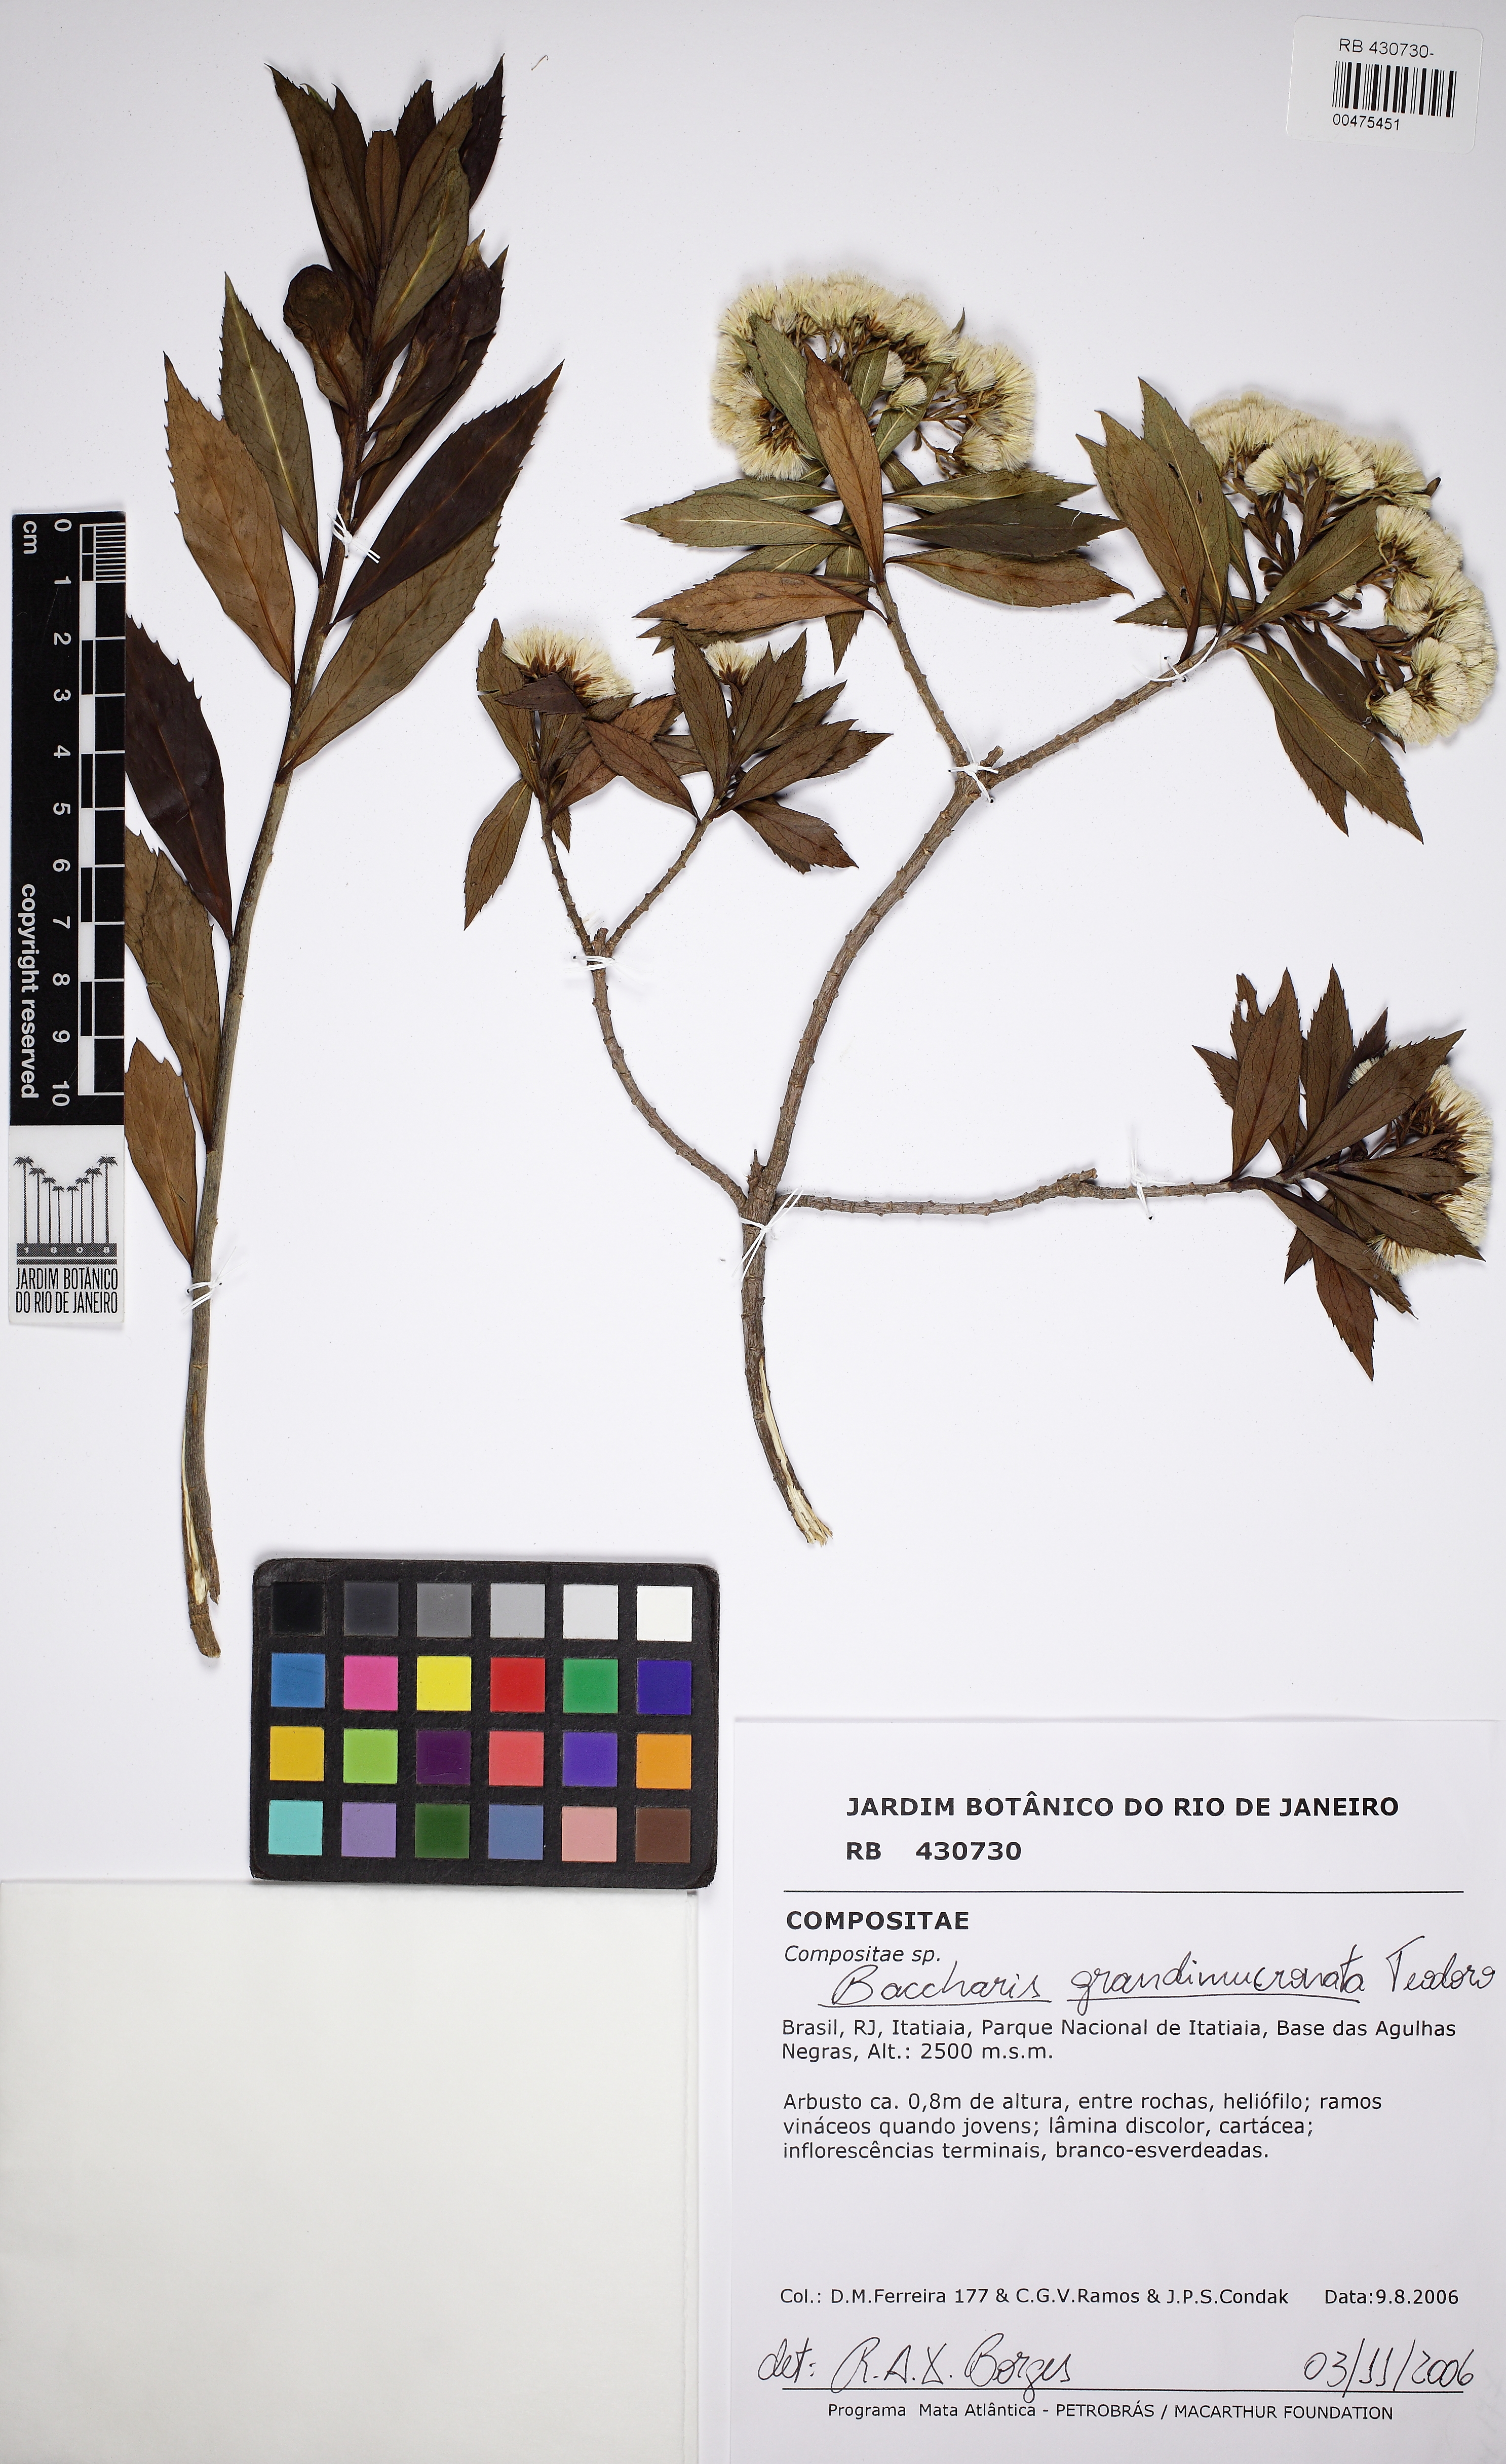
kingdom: Plantae
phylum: Tracheophyta
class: Magnoliopsida
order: Asterales
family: Asteraceae
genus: Baccharis
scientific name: Baccharis grandimucronata
